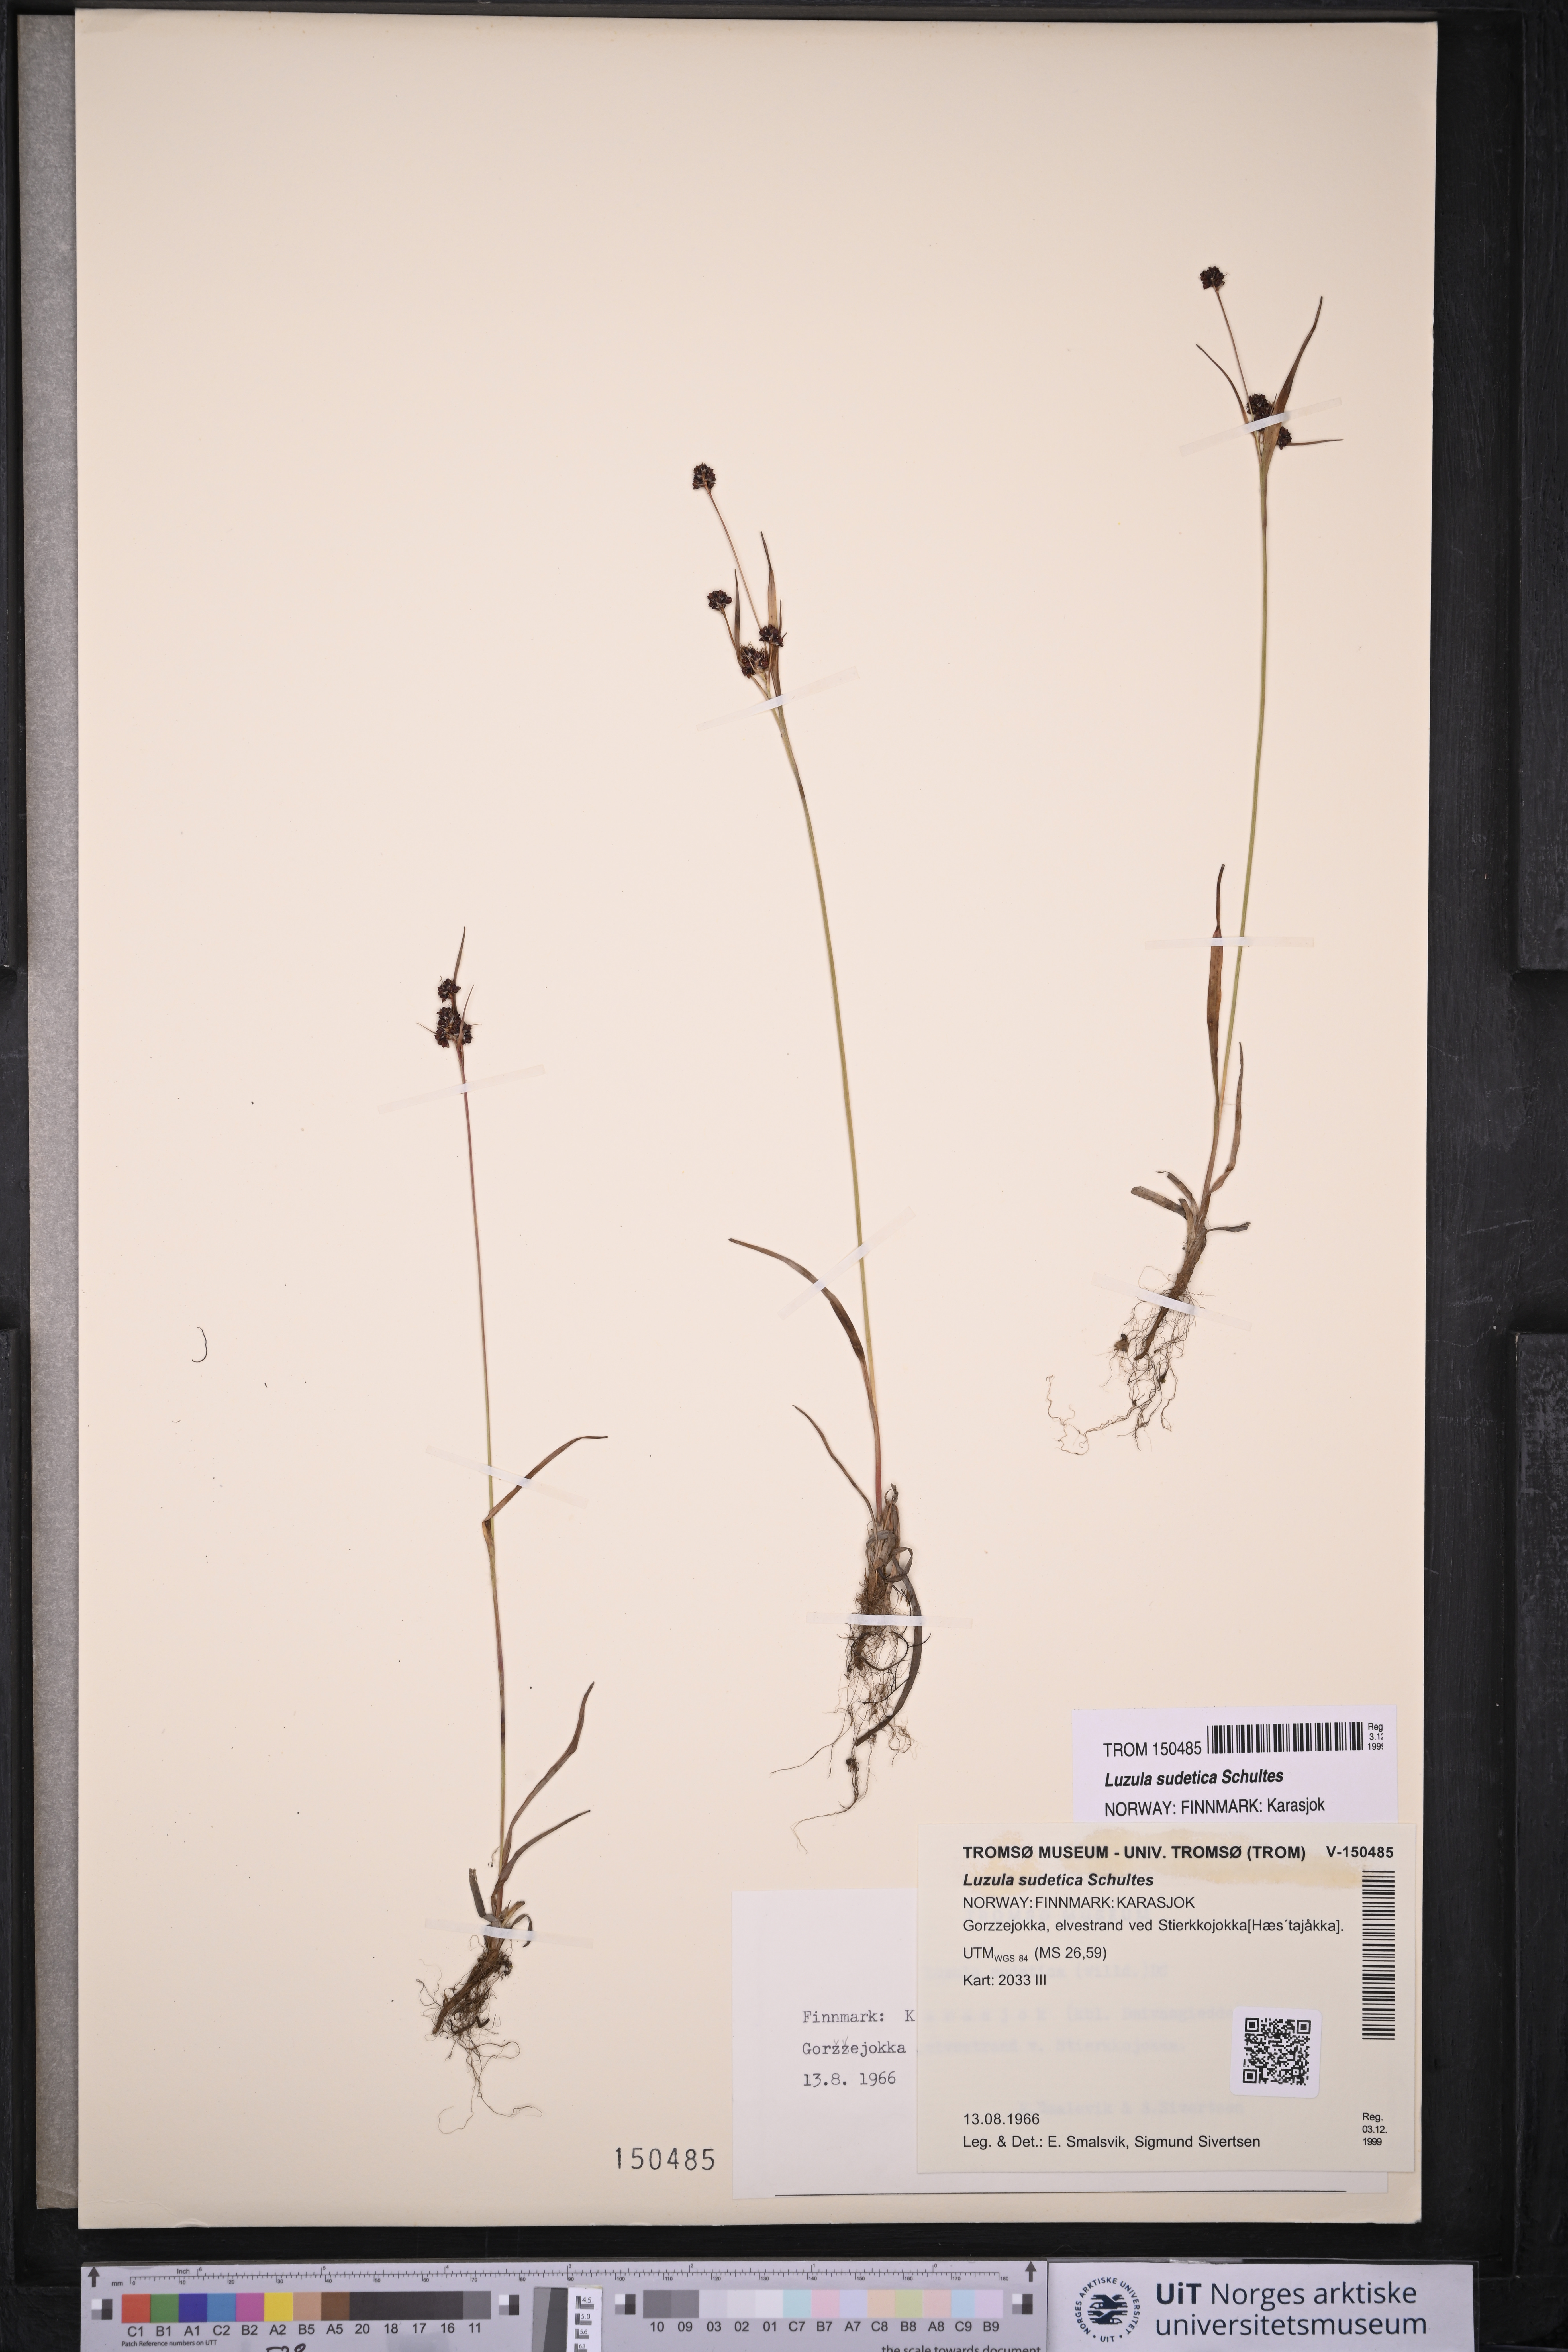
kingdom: Plantae
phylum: Tracheophyta
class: Liliopsida
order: Poales
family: Juncaceae
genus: Luzula
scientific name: Luzula sudetica
